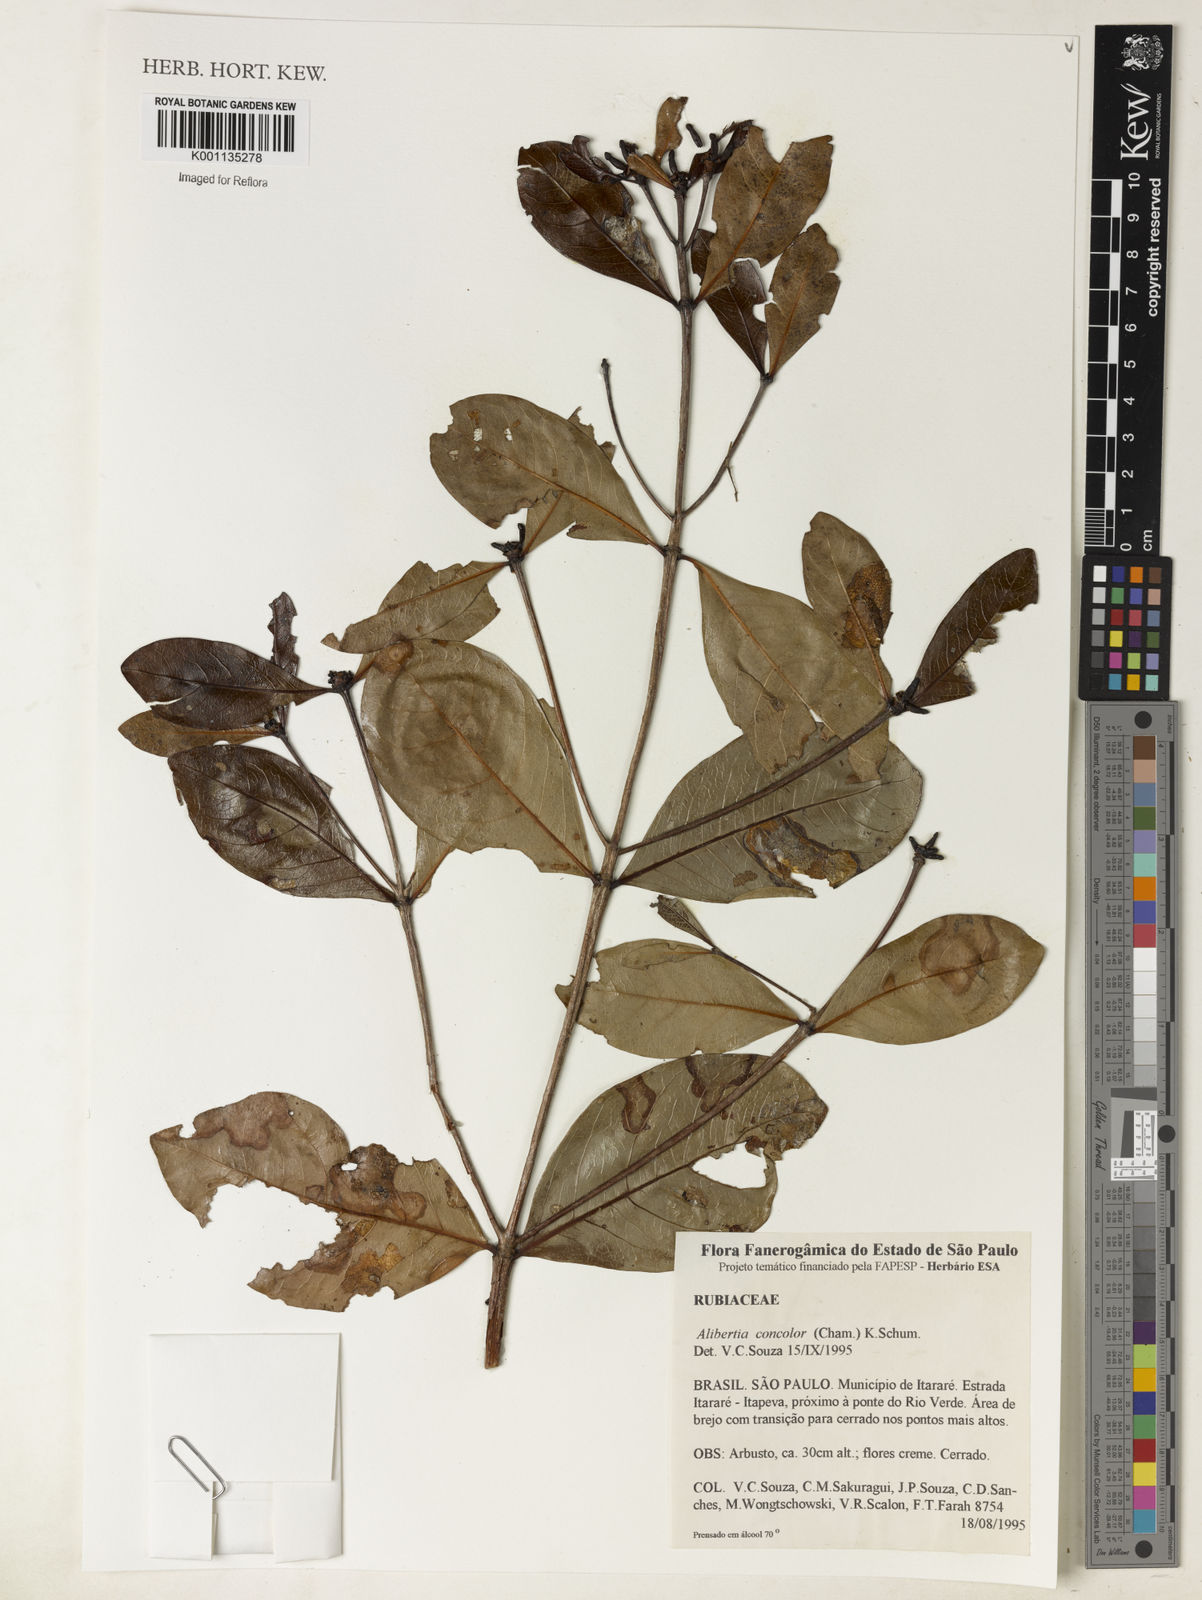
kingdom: Plantae
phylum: Tracheophyta
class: Magnoliopsida
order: Gentianales
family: Rubiaceae
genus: Cordiera
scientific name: Cordiera concolor
